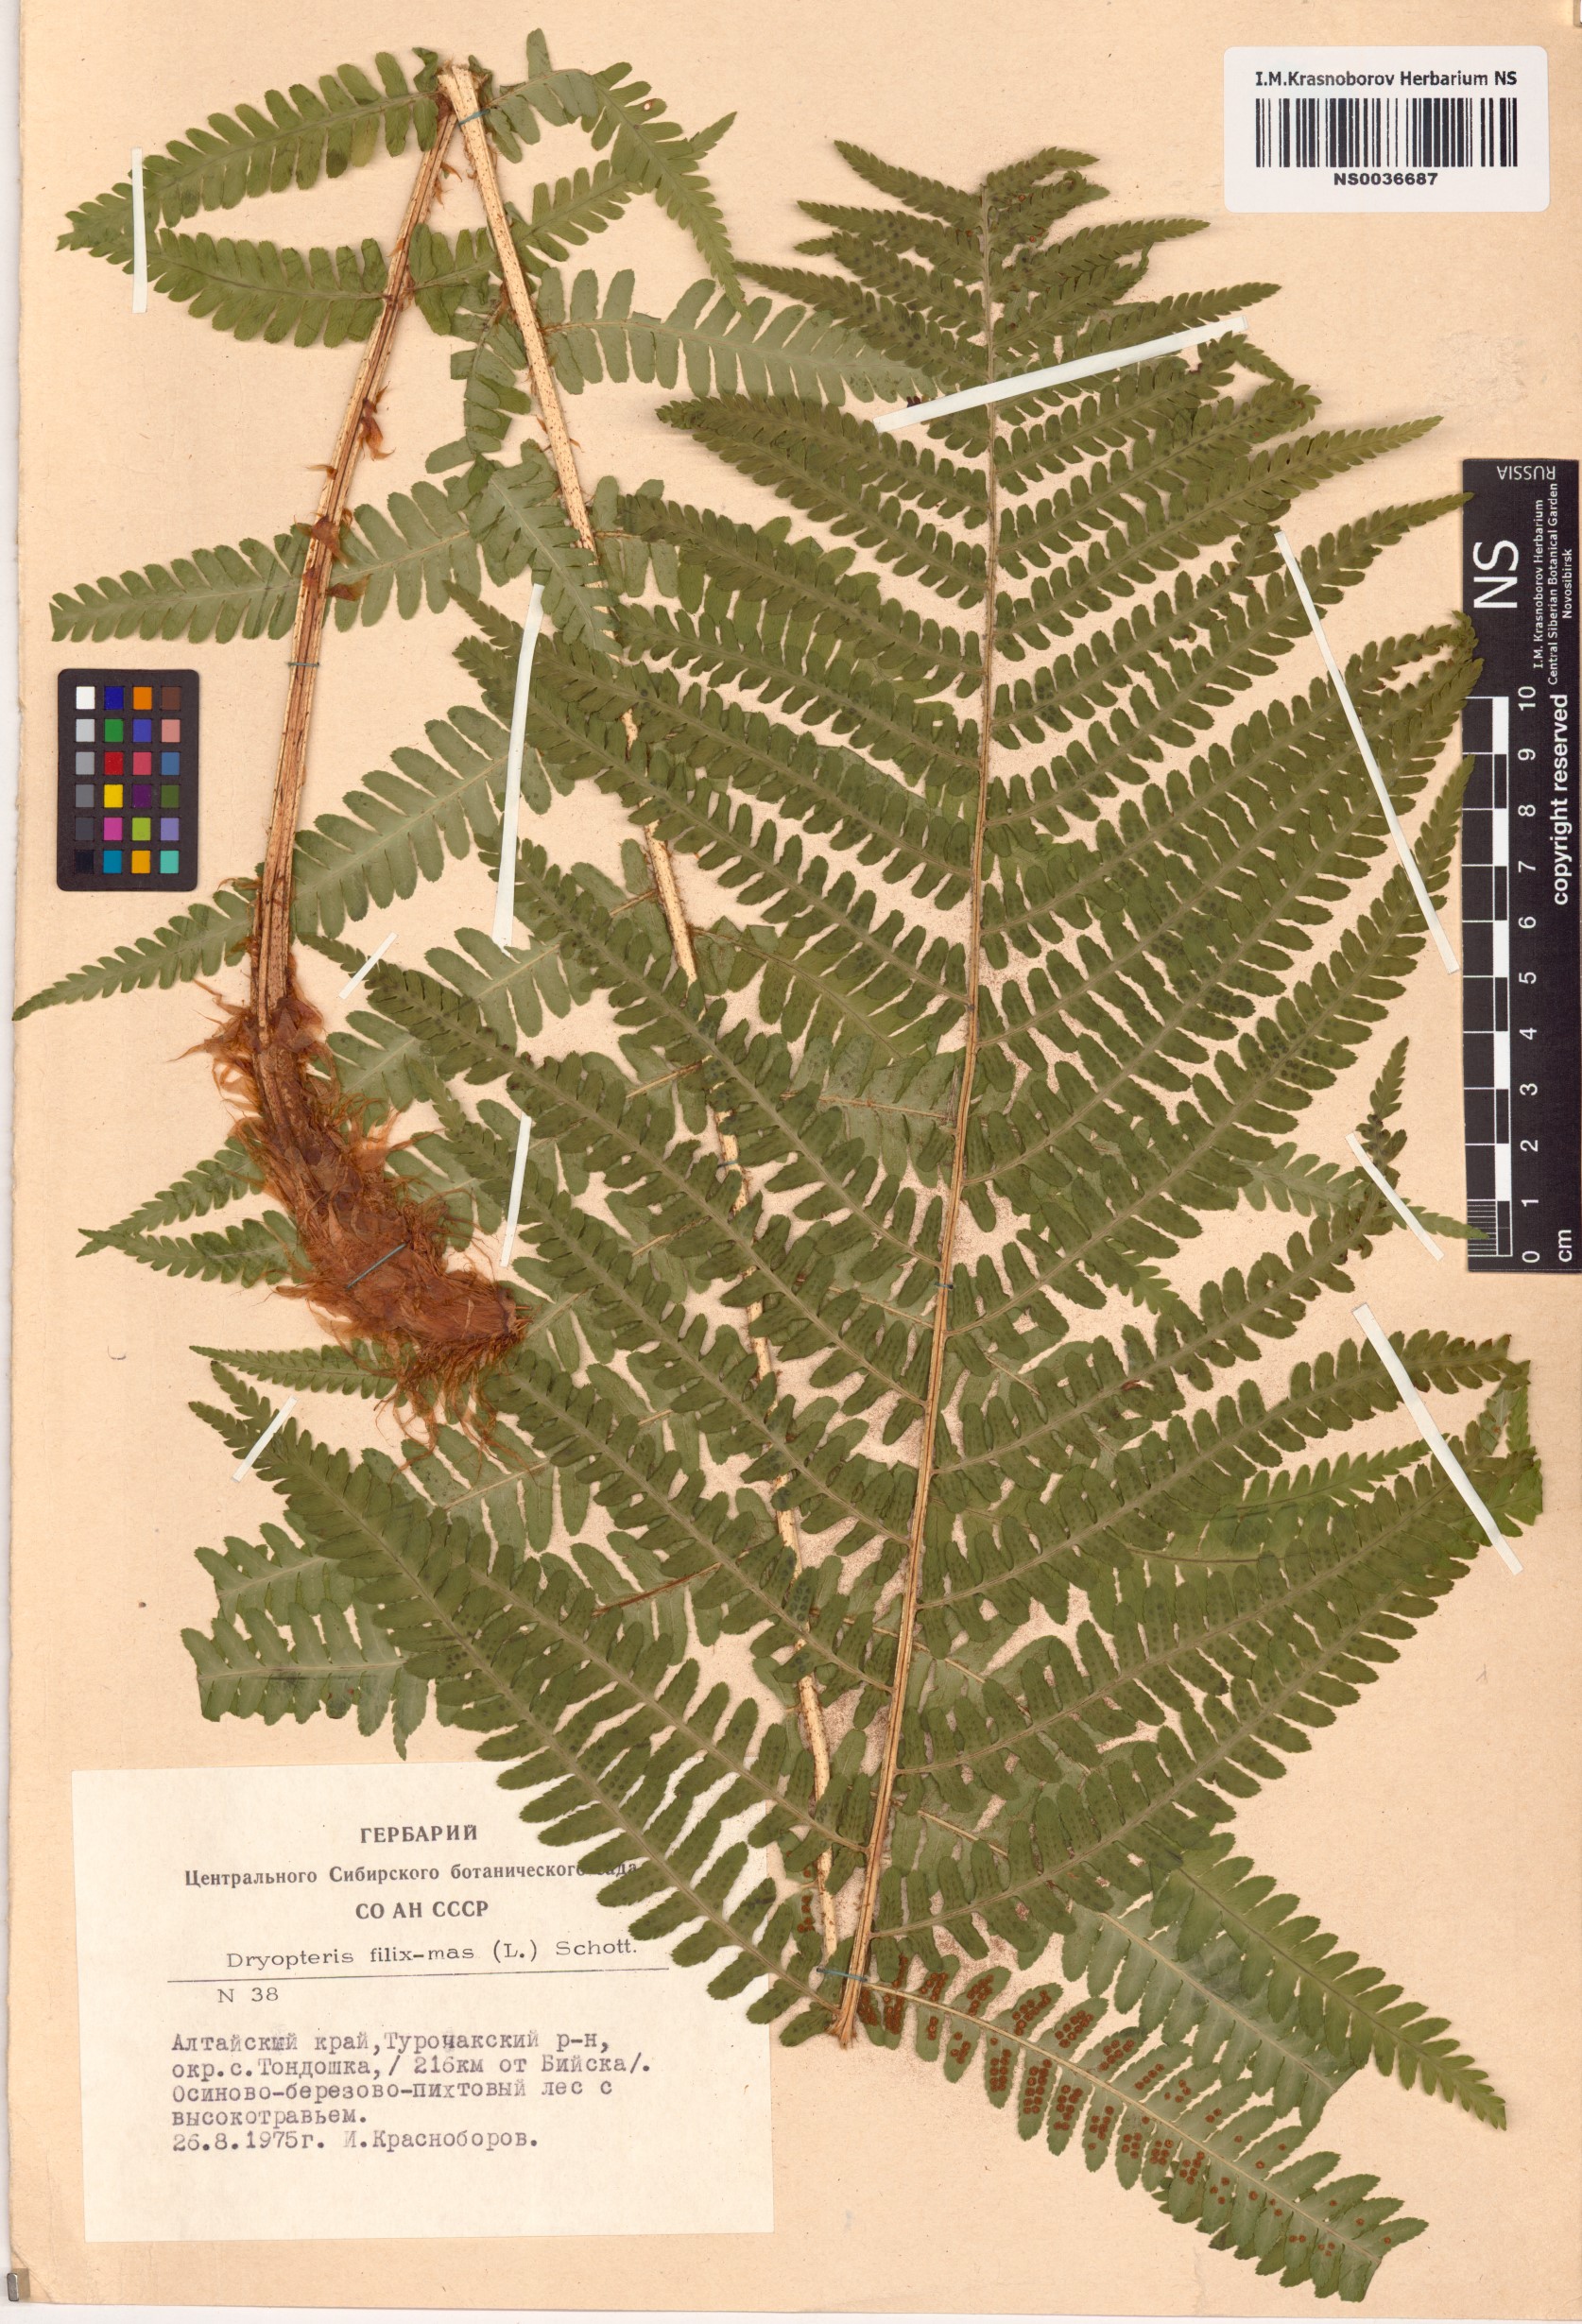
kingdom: Plantae
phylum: Tracheophyta
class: Polypodiopsida
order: Polypodiales
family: Dryopteridaceae
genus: Dryopteris
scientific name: Dryopteris filix-mas
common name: Male fern
